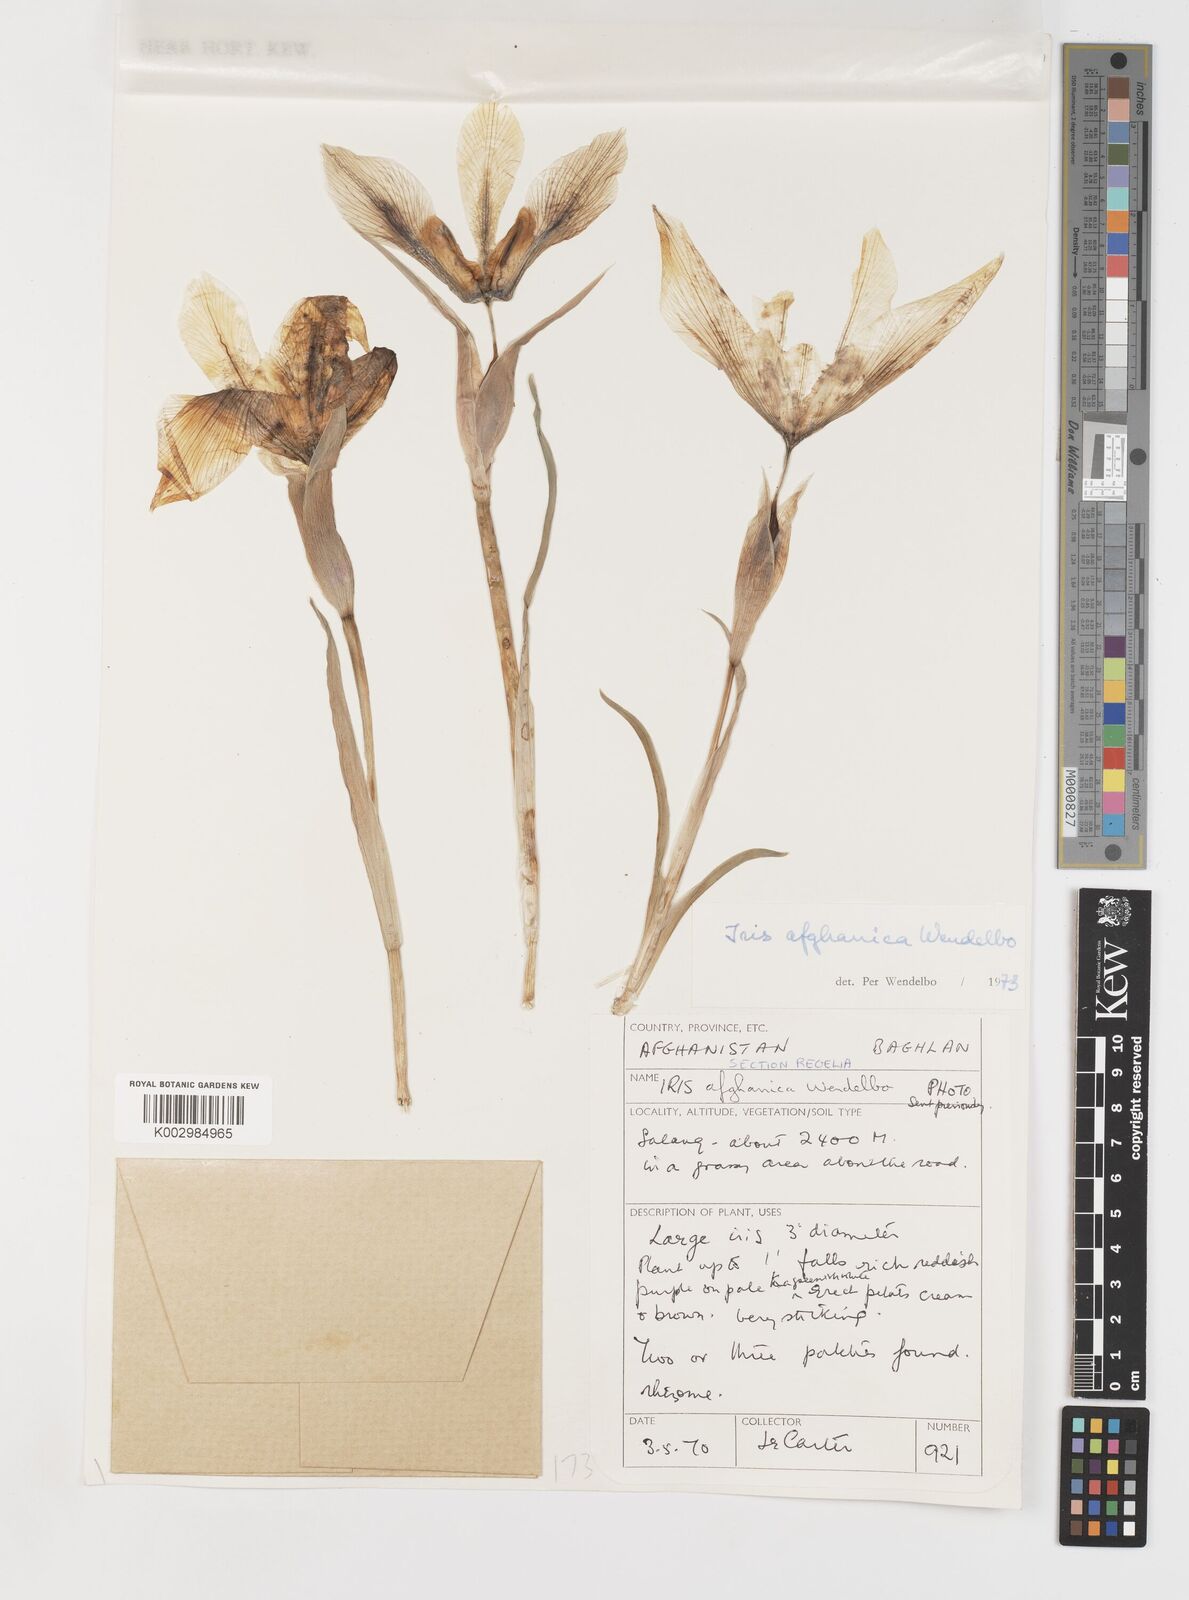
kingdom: Plantae
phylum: Tracheophyta
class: Liliopsida
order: Asparagales
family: Iridaceae
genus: Iris
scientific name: Iris afghanica
